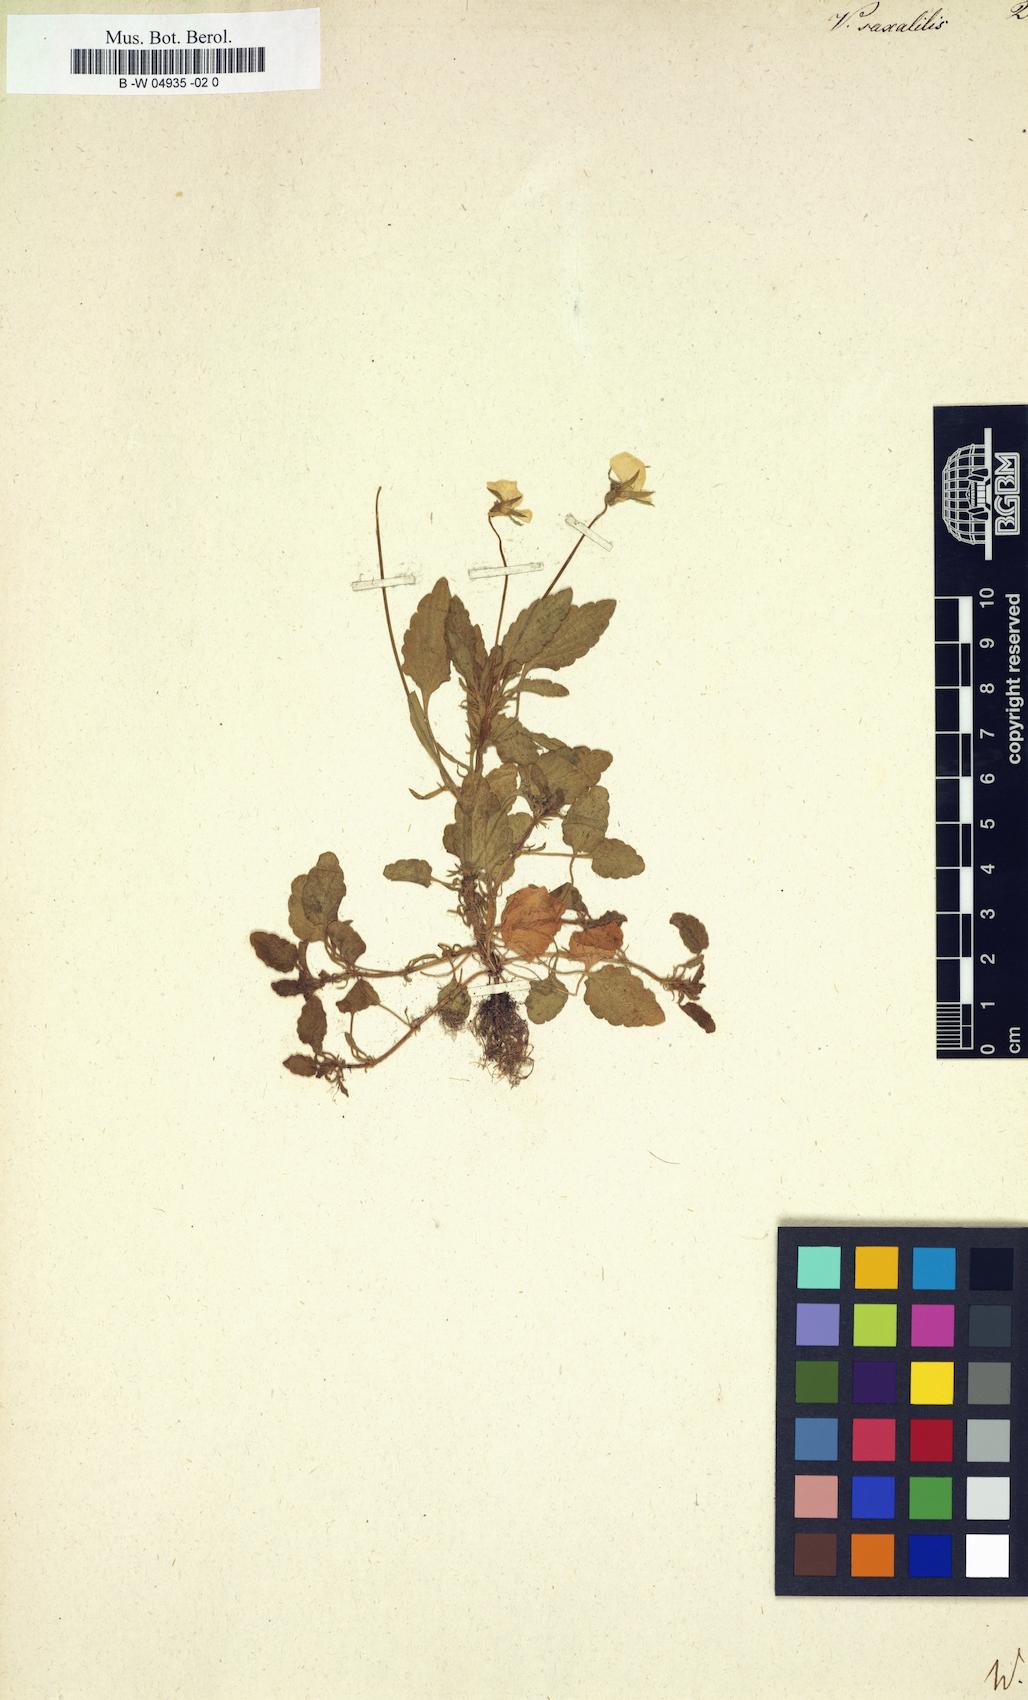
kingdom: Plantae
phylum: Tracheophyta
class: Magnoliopsida
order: Malpighiales
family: Violaceae
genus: Viola
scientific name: Viola saxatilis
